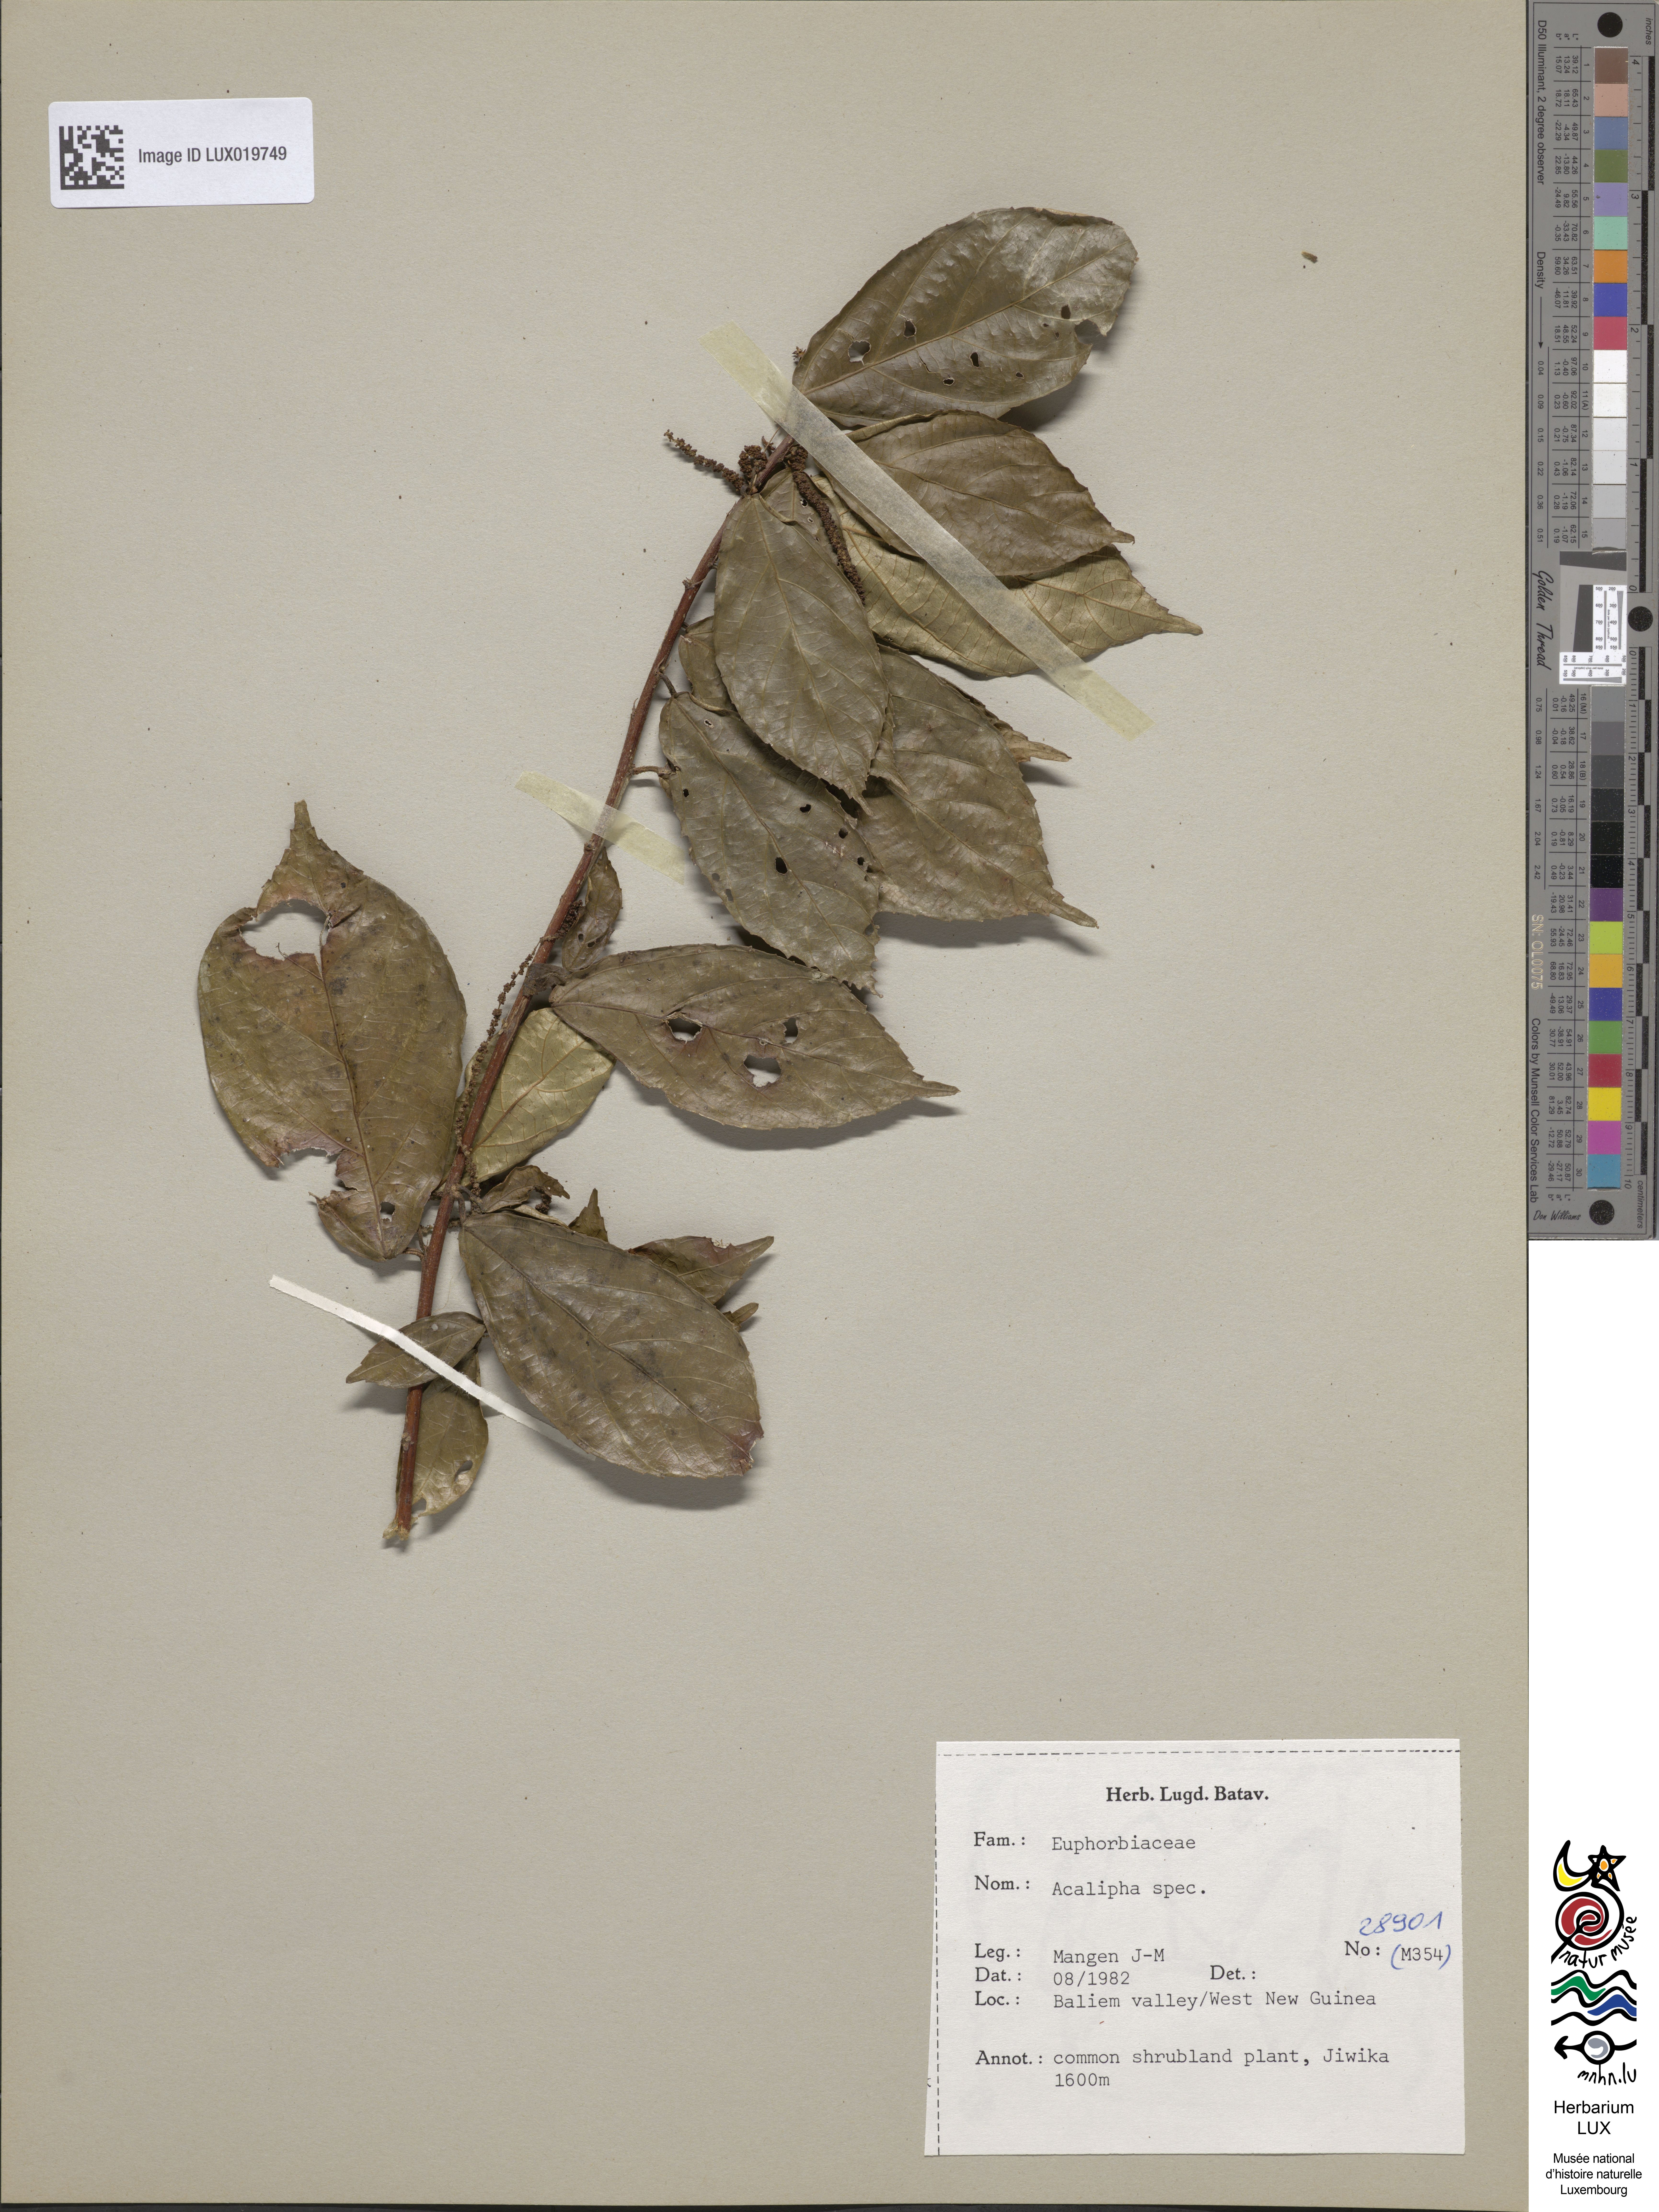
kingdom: Plantae
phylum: Tracheophyta
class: Magnoliopsida
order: Malpighiales
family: Euphorbiaceae
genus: Acalypha
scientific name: Acalypha
